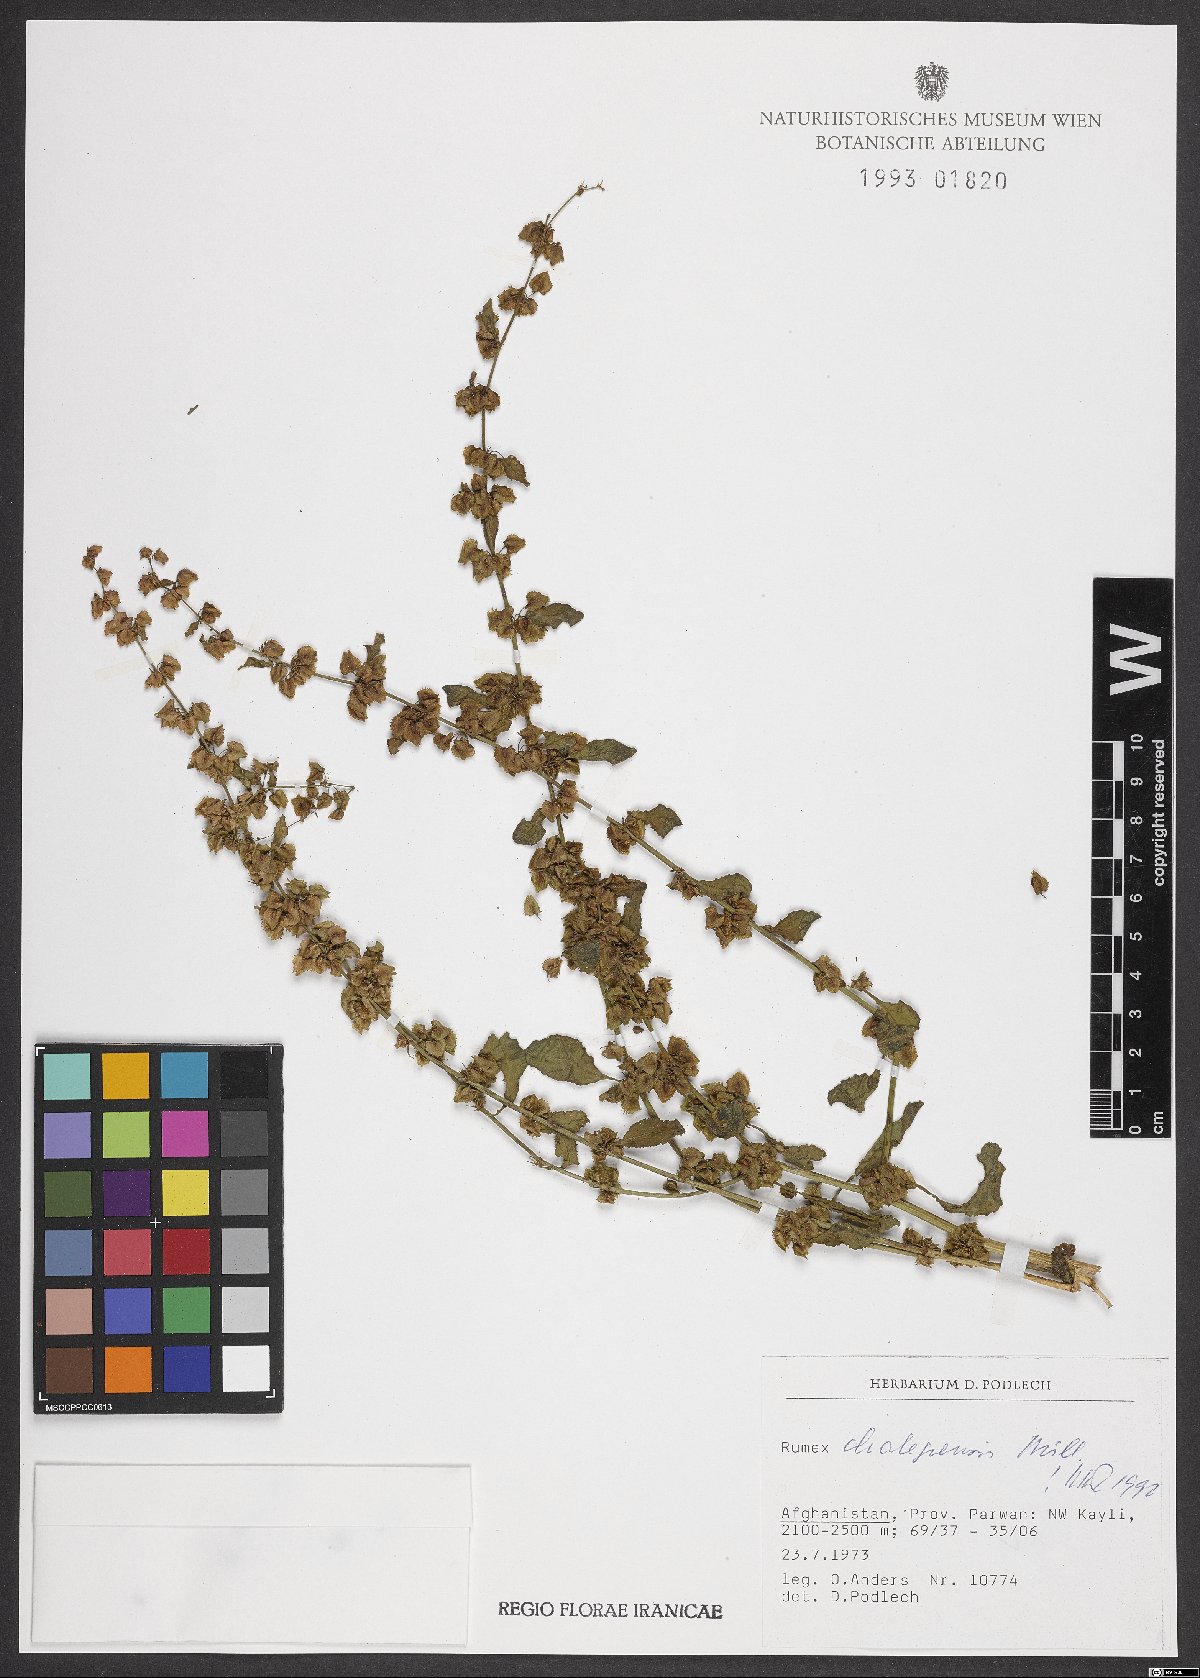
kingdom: Plantae
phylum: Tracheophyta
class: Magnoliopsida
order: Caryophyllales
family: Polygonaceae
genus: Rumex
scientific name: Rumex chalepensis
